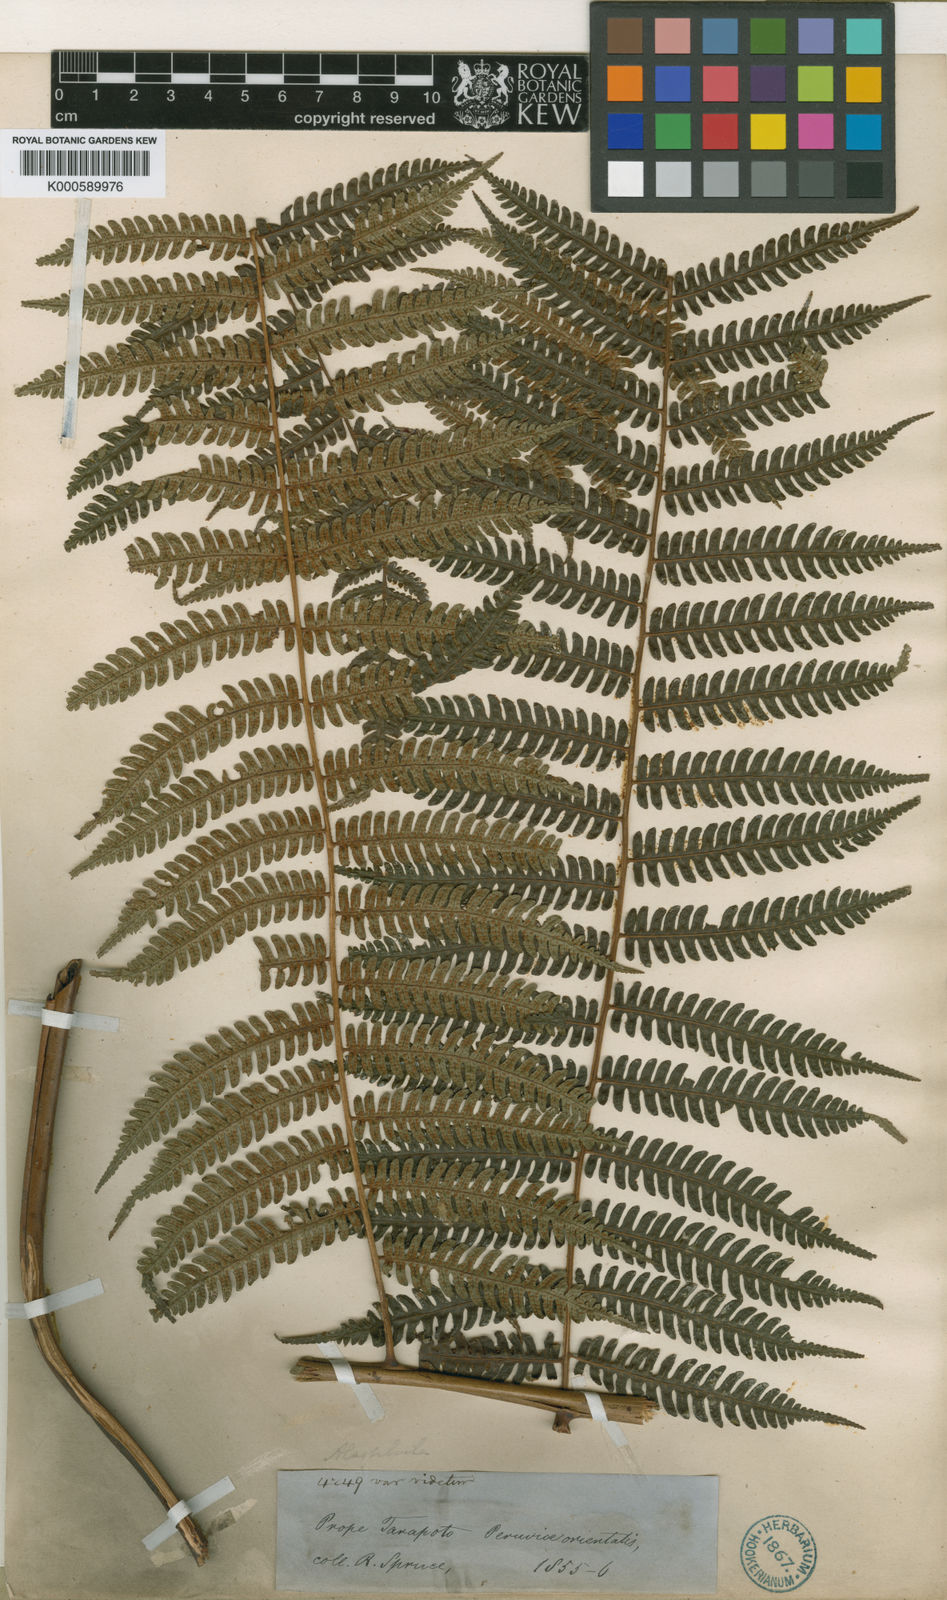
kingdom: Plantae
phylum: Tracheophyta
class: Polypodiopsida
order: Cyatheales
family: Cyatheaceae
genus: Cyathea
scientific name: Cyathea nigra
